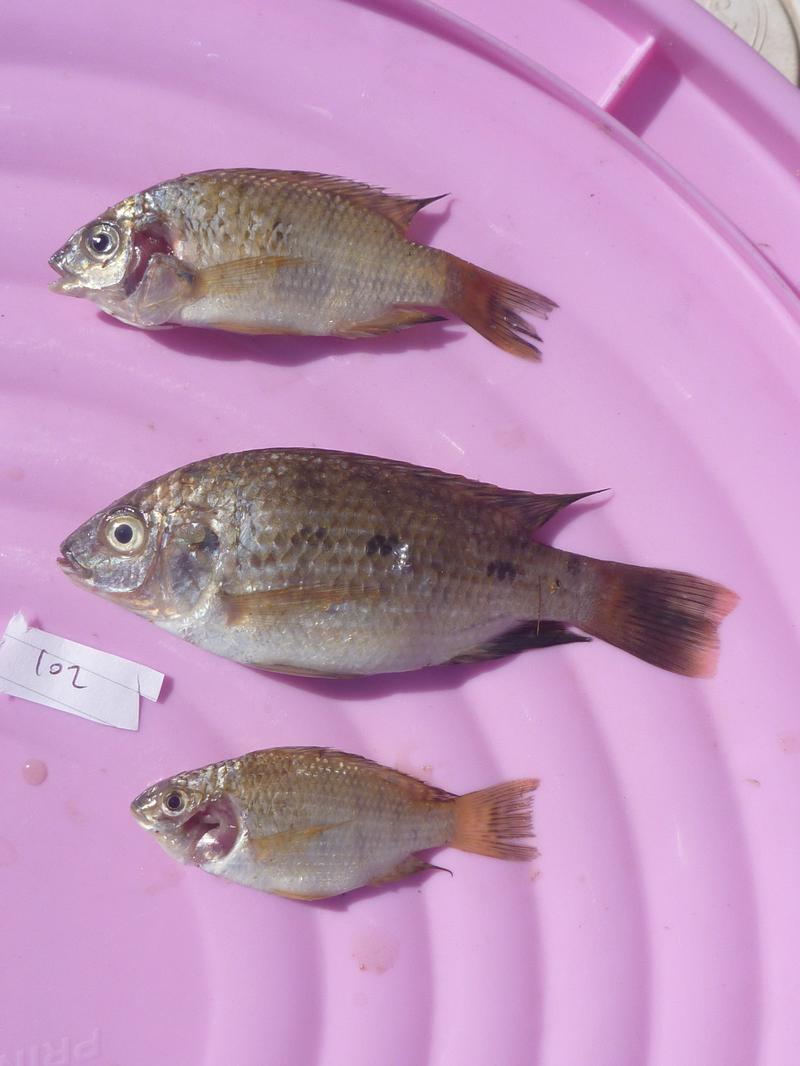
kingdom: Animalia
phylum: Chordata
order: Perciformes
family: Cichlidae
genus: Oreochromis
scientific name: Oreochromis shiranus
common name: Chilwa tilapia
